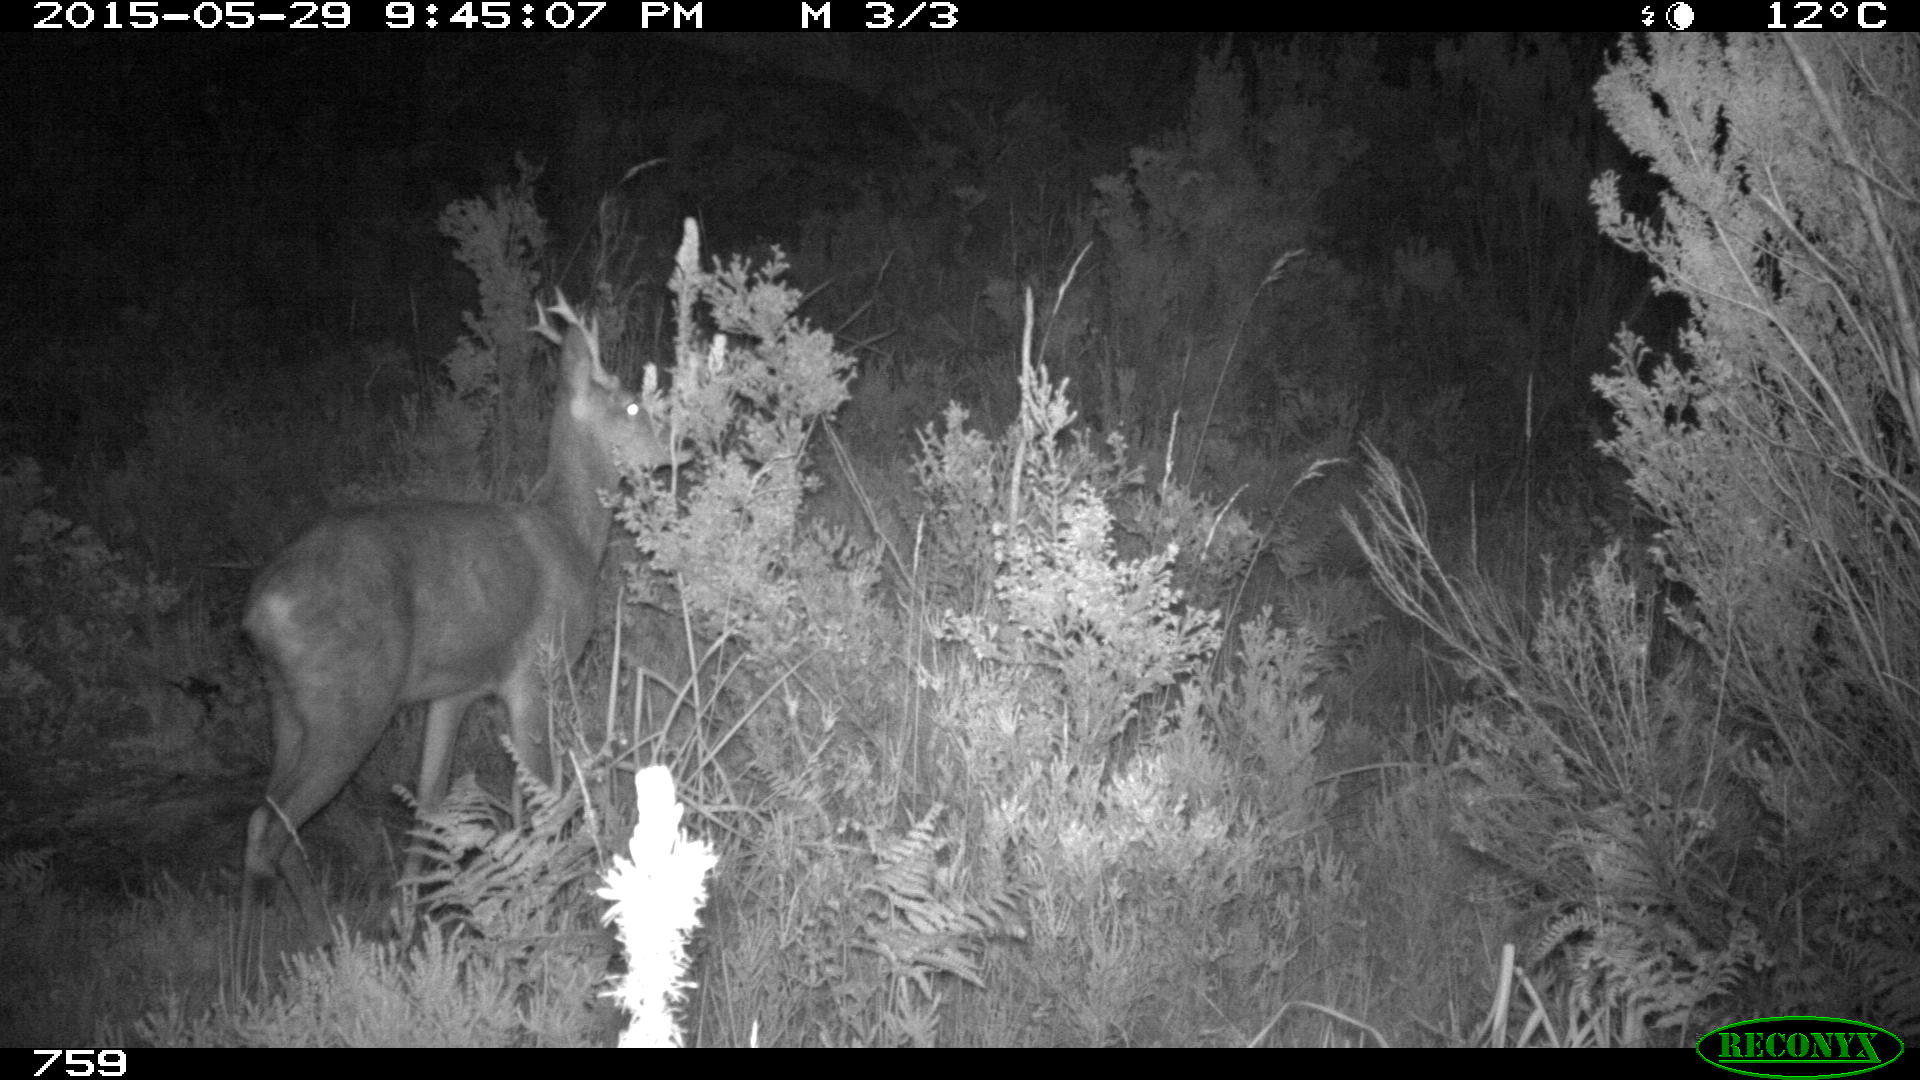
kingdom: Animalia
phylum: Chordata
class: Mammalia
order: Artiodactyla
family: Cervidae
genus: Capreolus
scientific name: Capreolus capreolus
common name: Western roe deer
